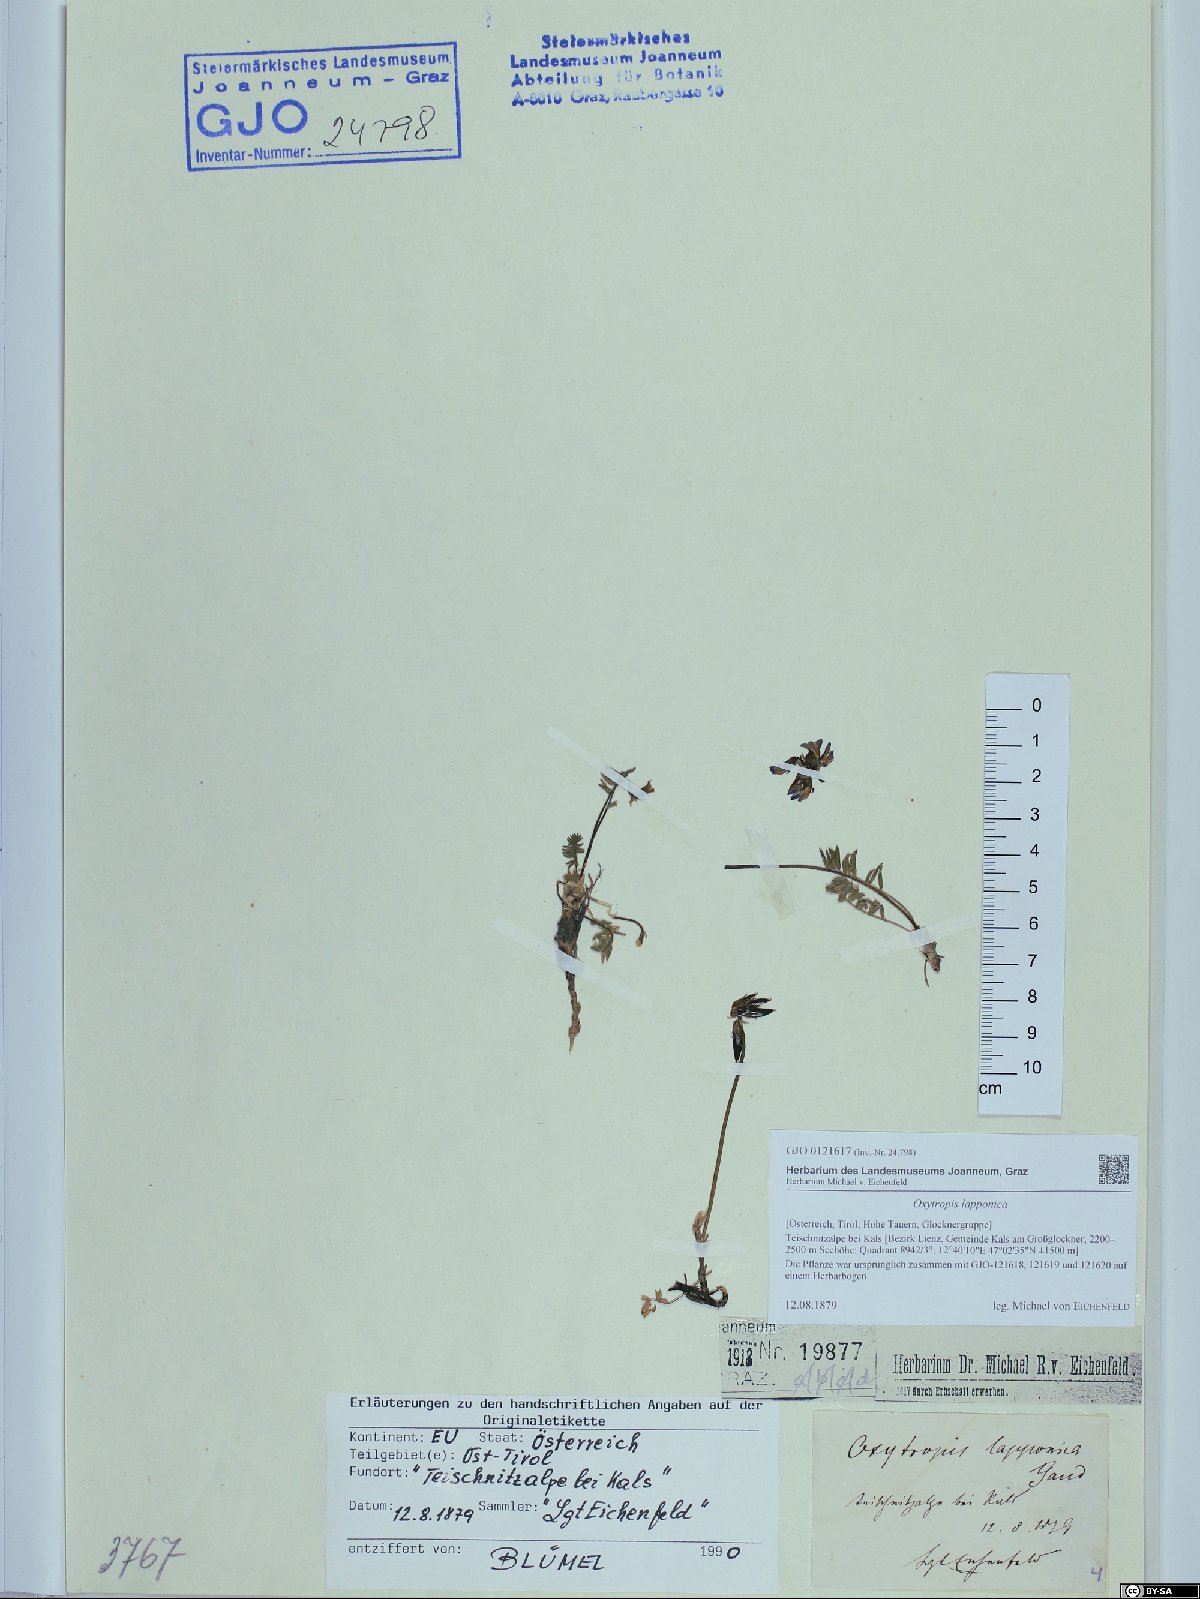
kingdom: Plantae
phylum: Tracheophyta
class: Magnoliopsida
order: Fabales
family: Fabaceae
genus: Oxytropis
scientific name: Oxytropis lapponica
